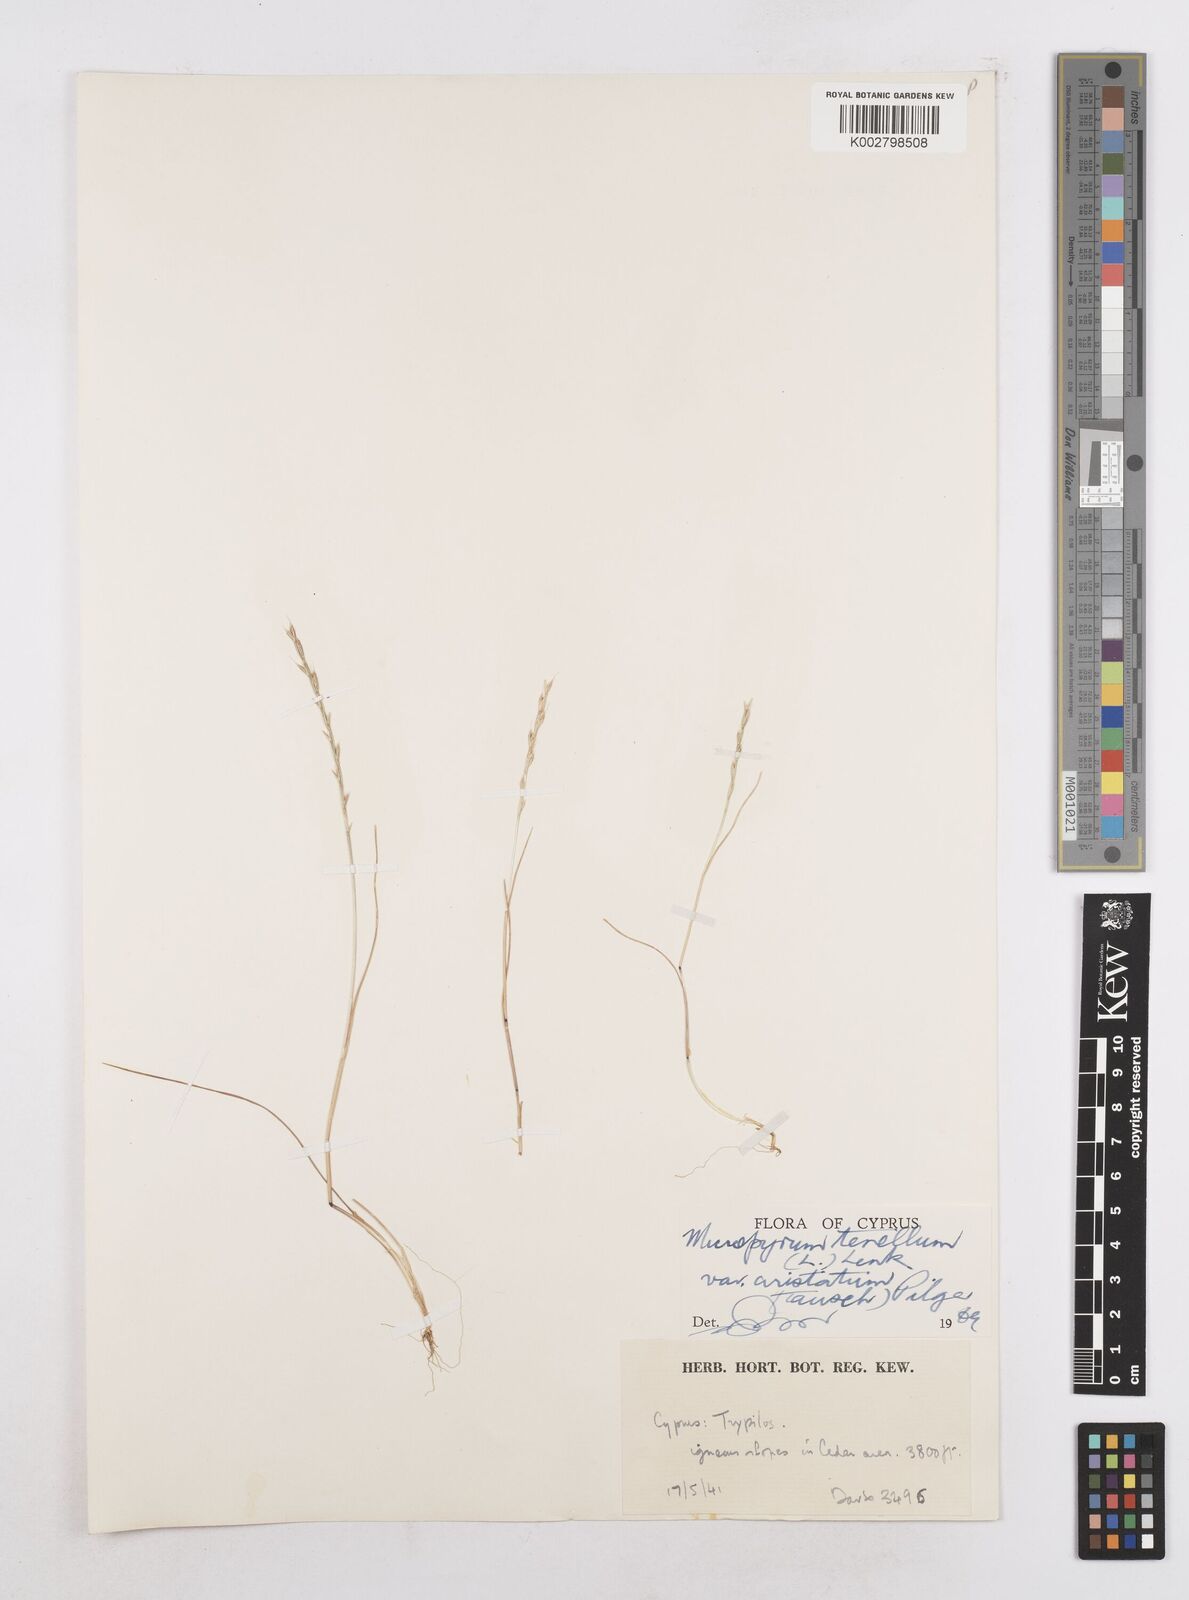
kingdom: Plantae
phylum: Tracheophyta
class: Liliopsida
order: Poales
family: Poaceae
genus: Festuca
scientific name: Festuca lachenalii
